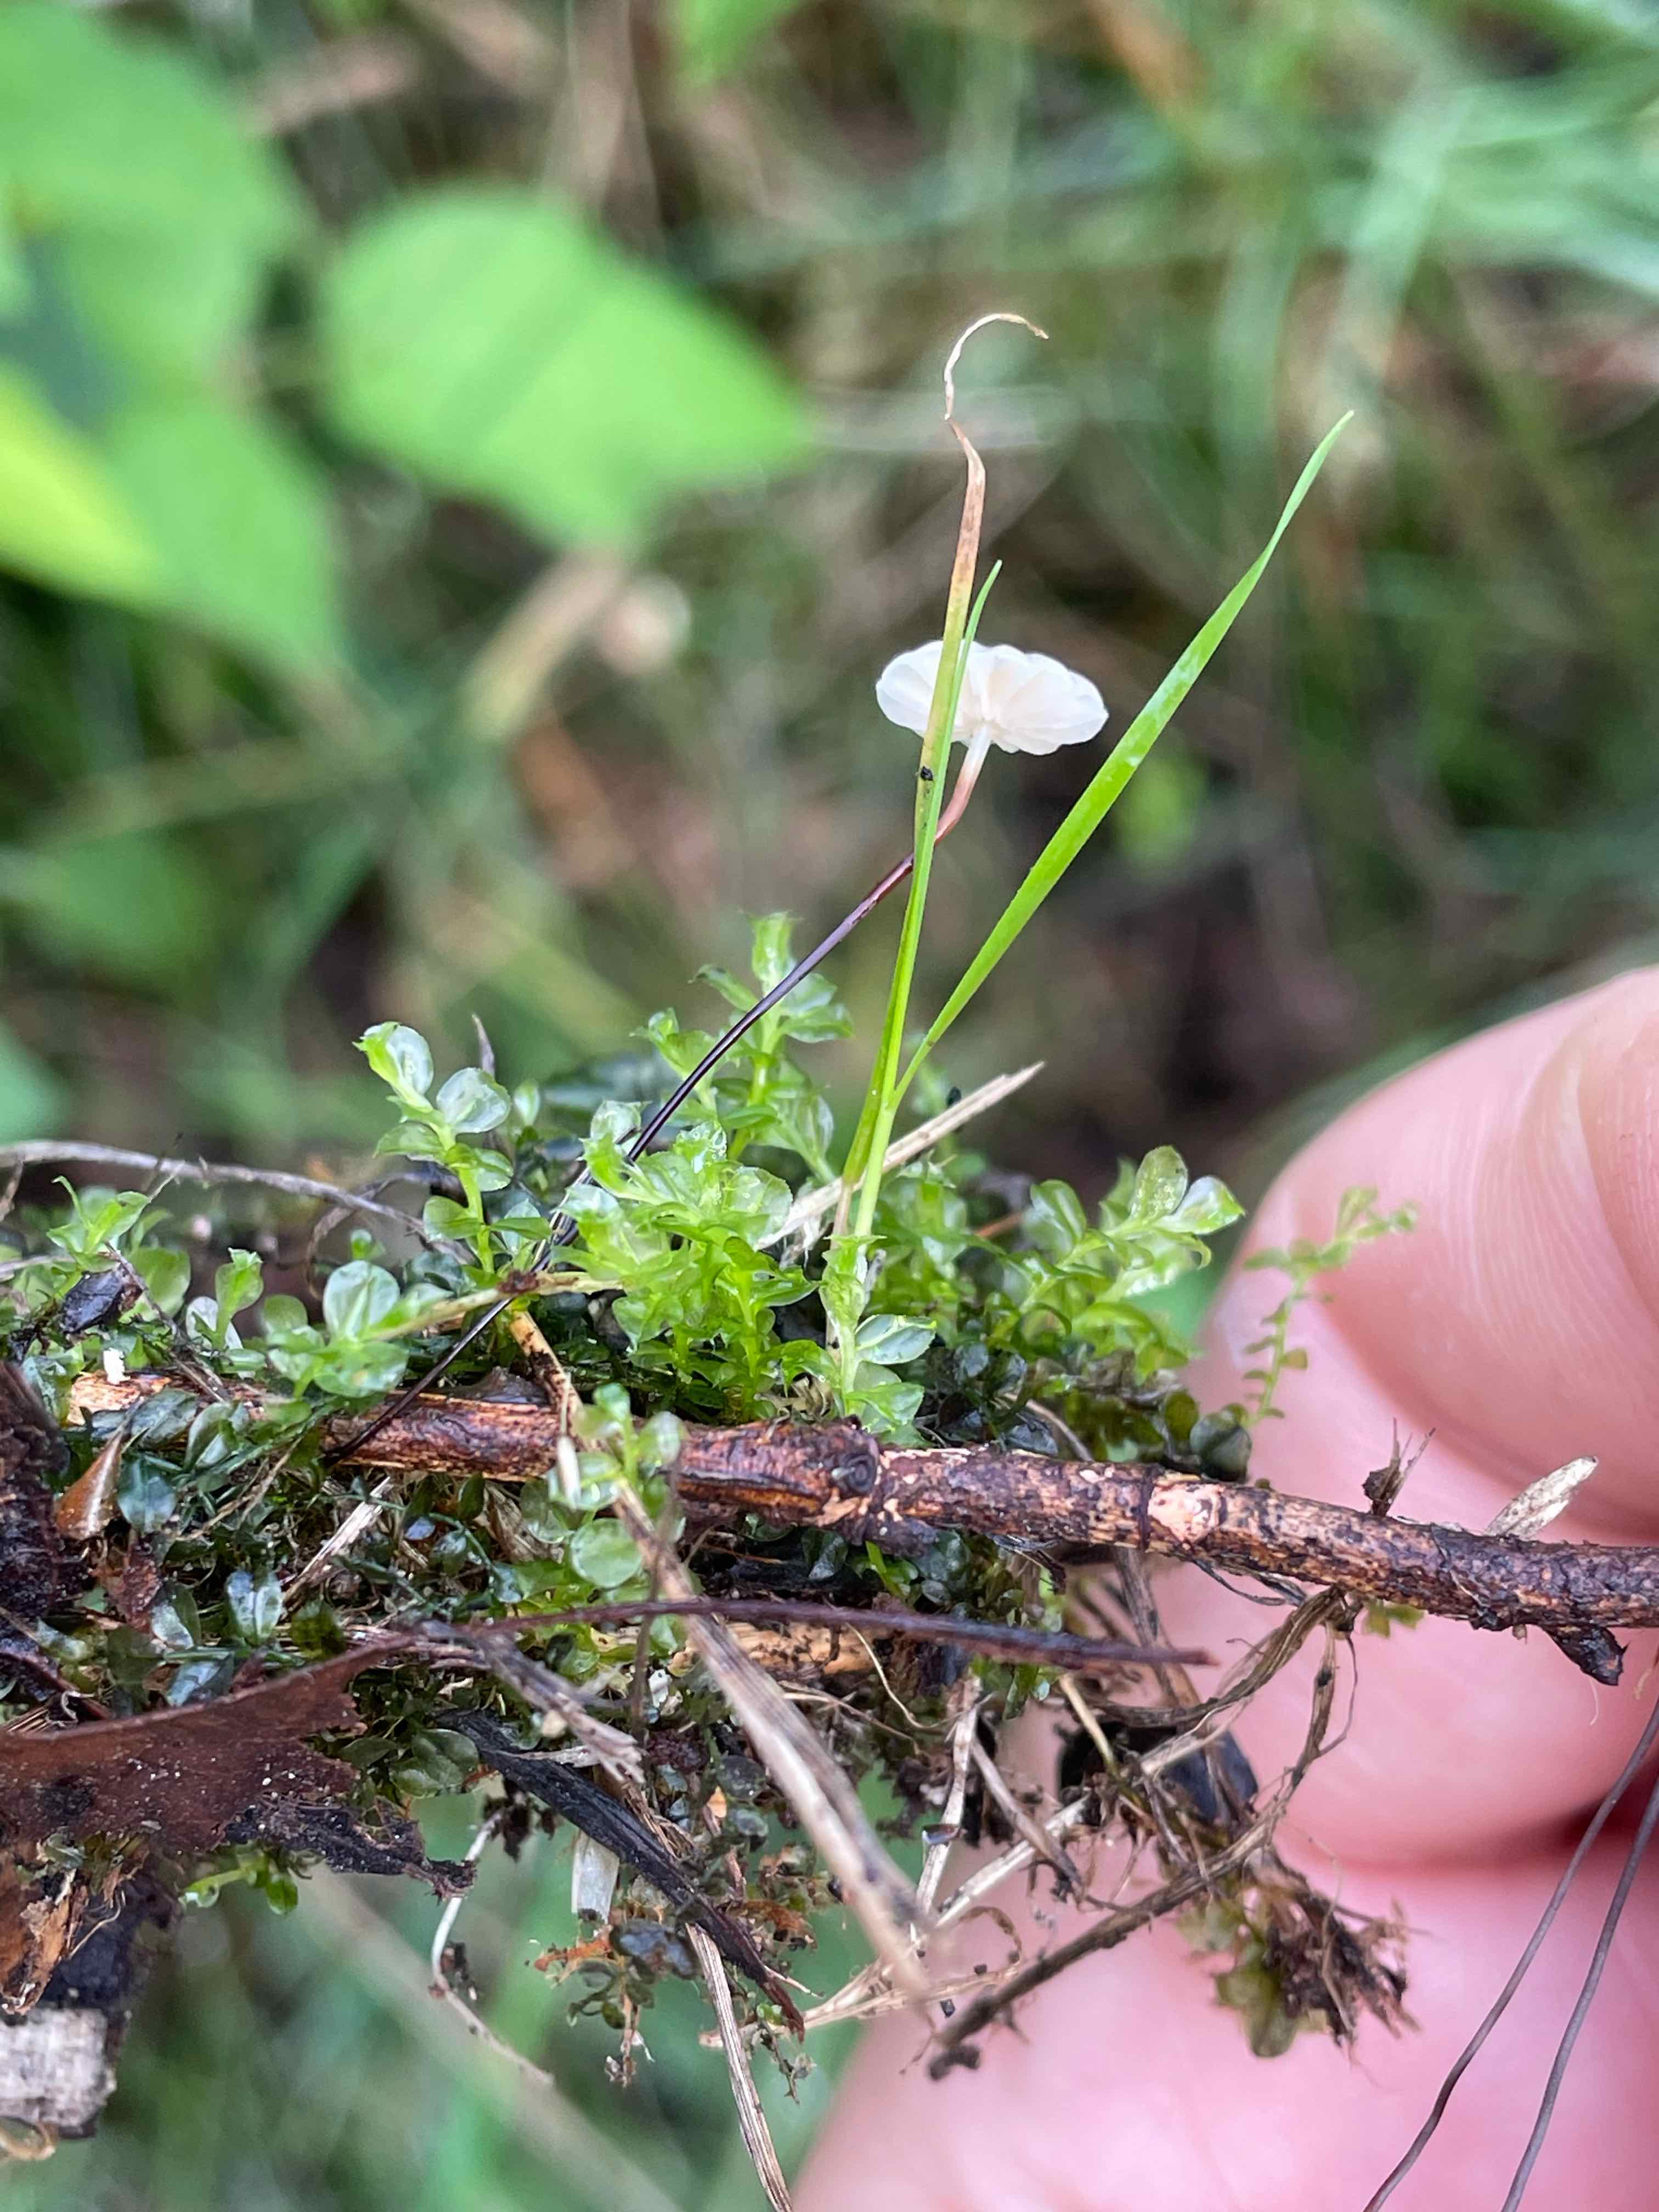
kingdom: Fungi
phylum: Basidiomycota
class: Agaricomycetes
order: Agaricales
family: Marasmiaceae
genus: Marasmius
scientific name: Marasmius rotula
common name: hjul-bruskhat
